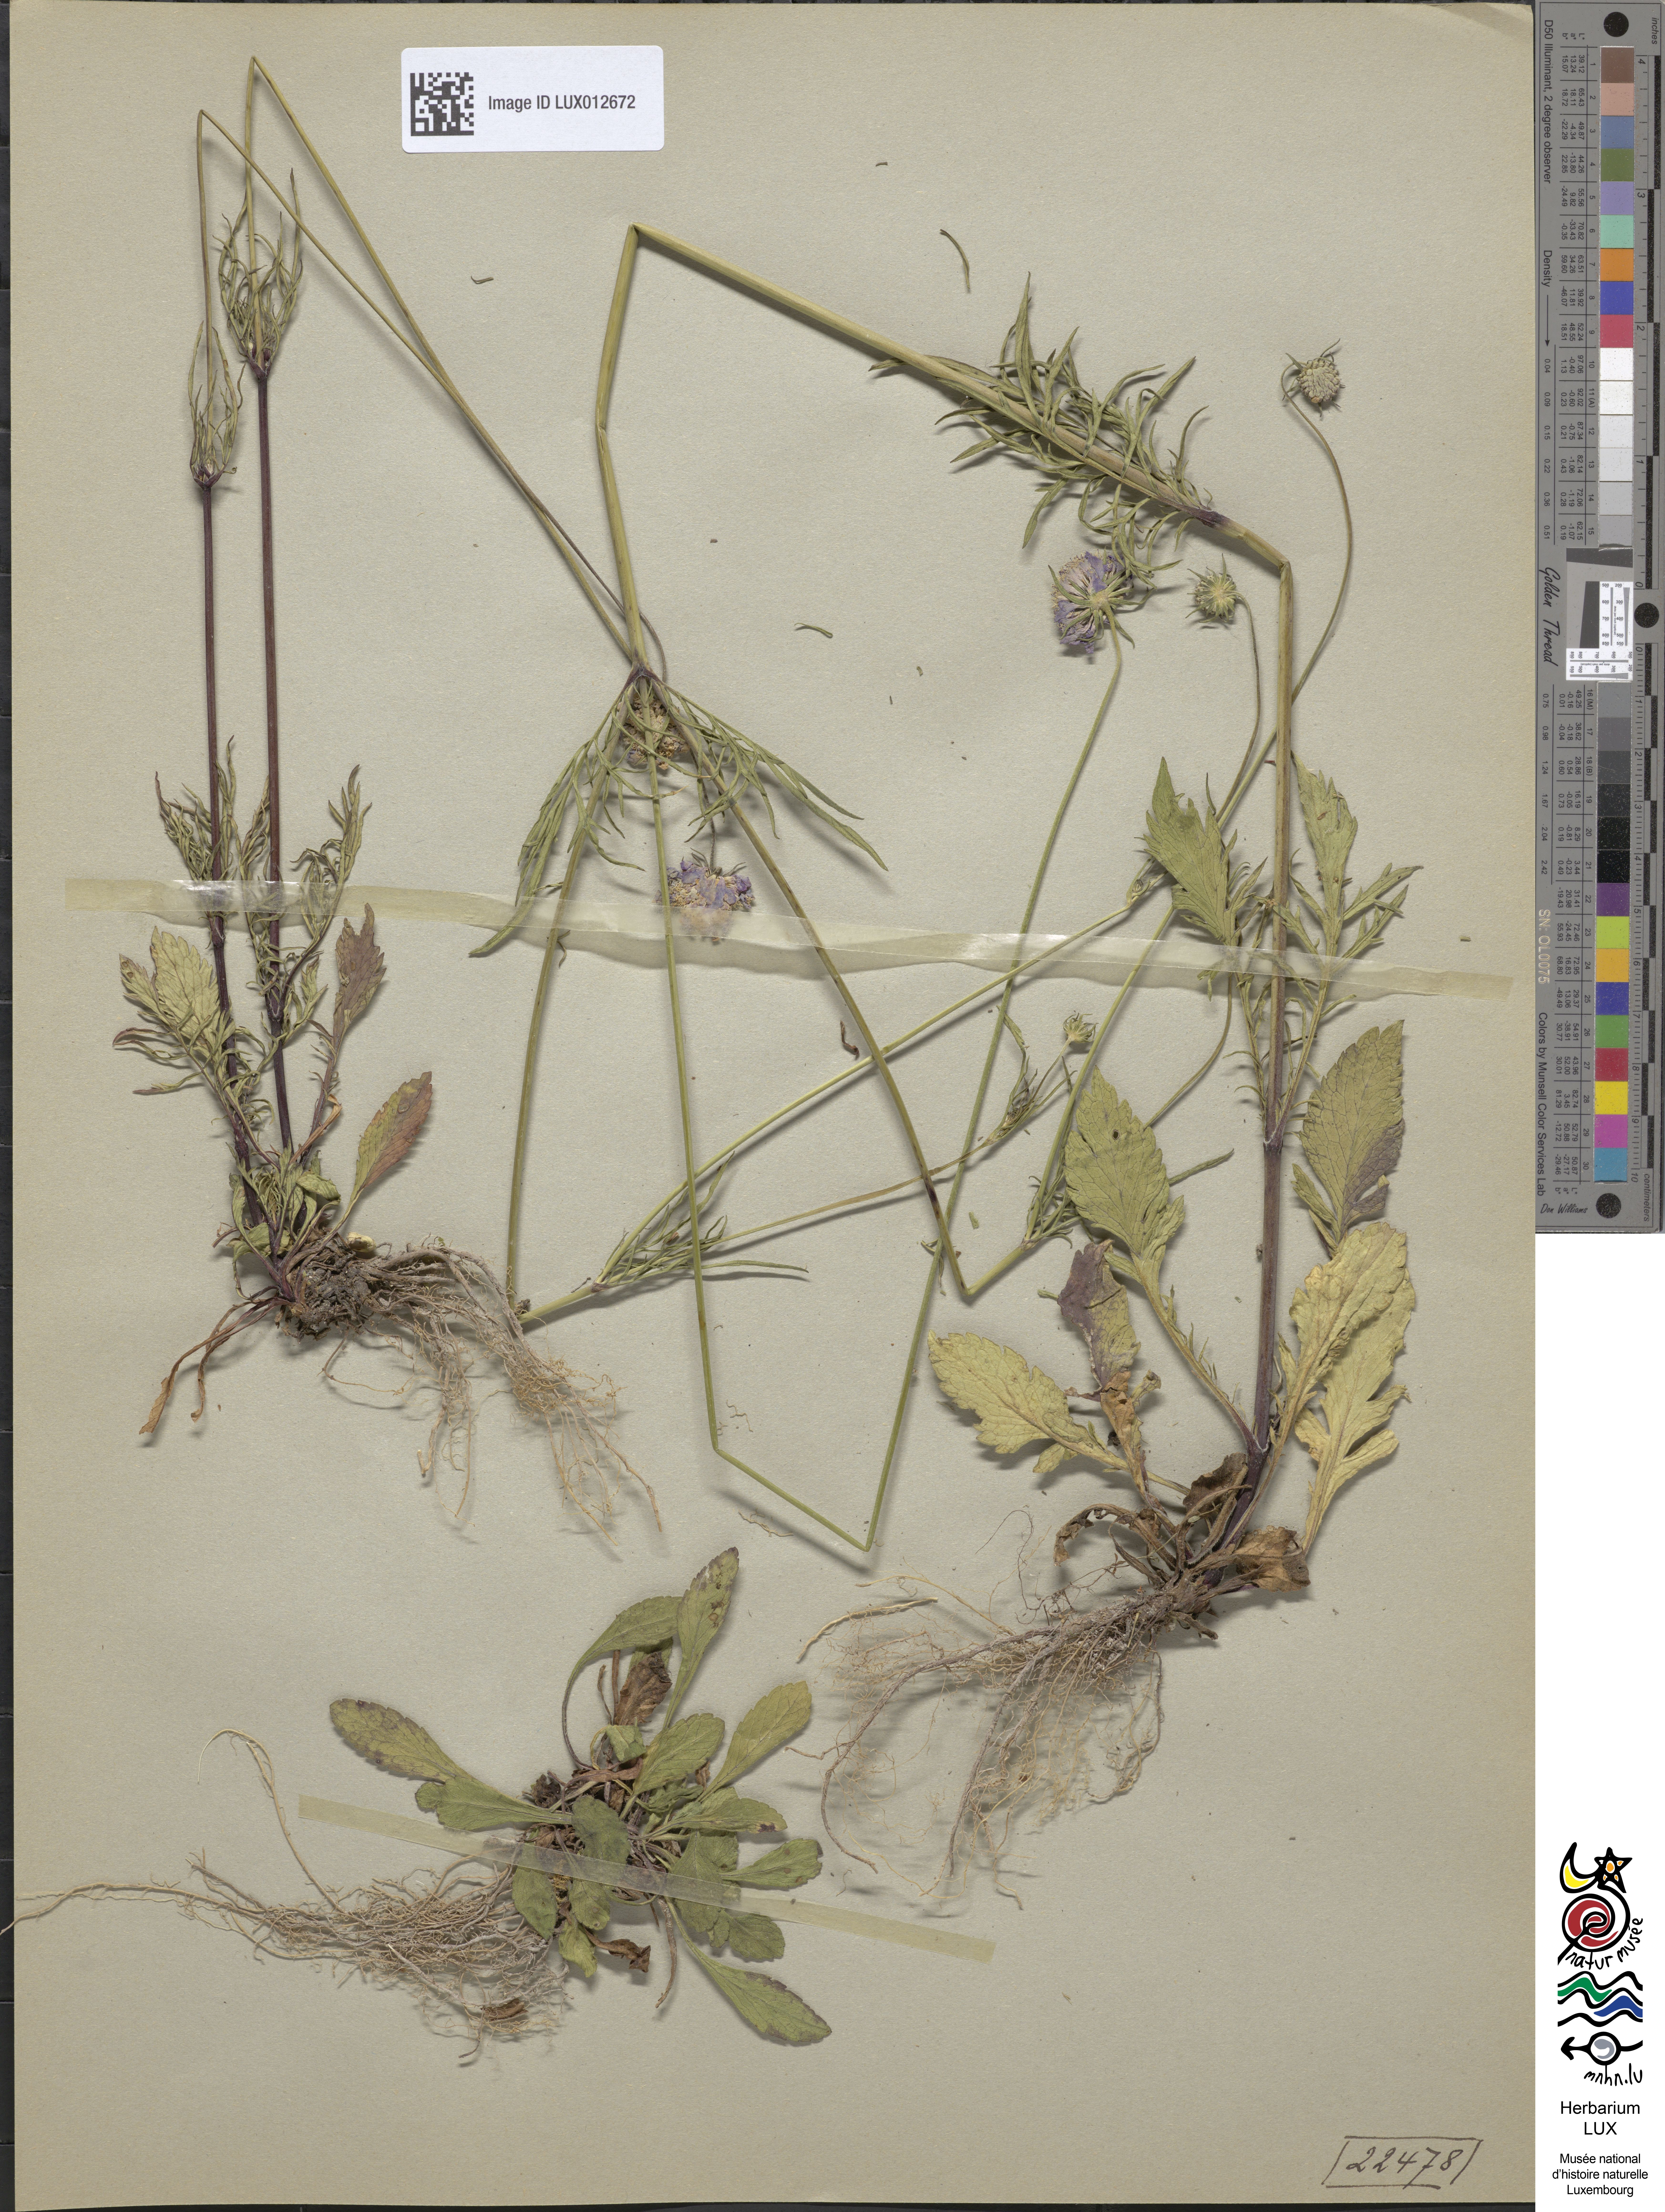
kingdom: Plantae
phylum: Tracheophyta
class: Magnoliopsida
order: Dipsacales
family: Caprifoliaceae
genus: Scabiosa
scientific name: Scabiosa columbaria
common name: Small scabious
